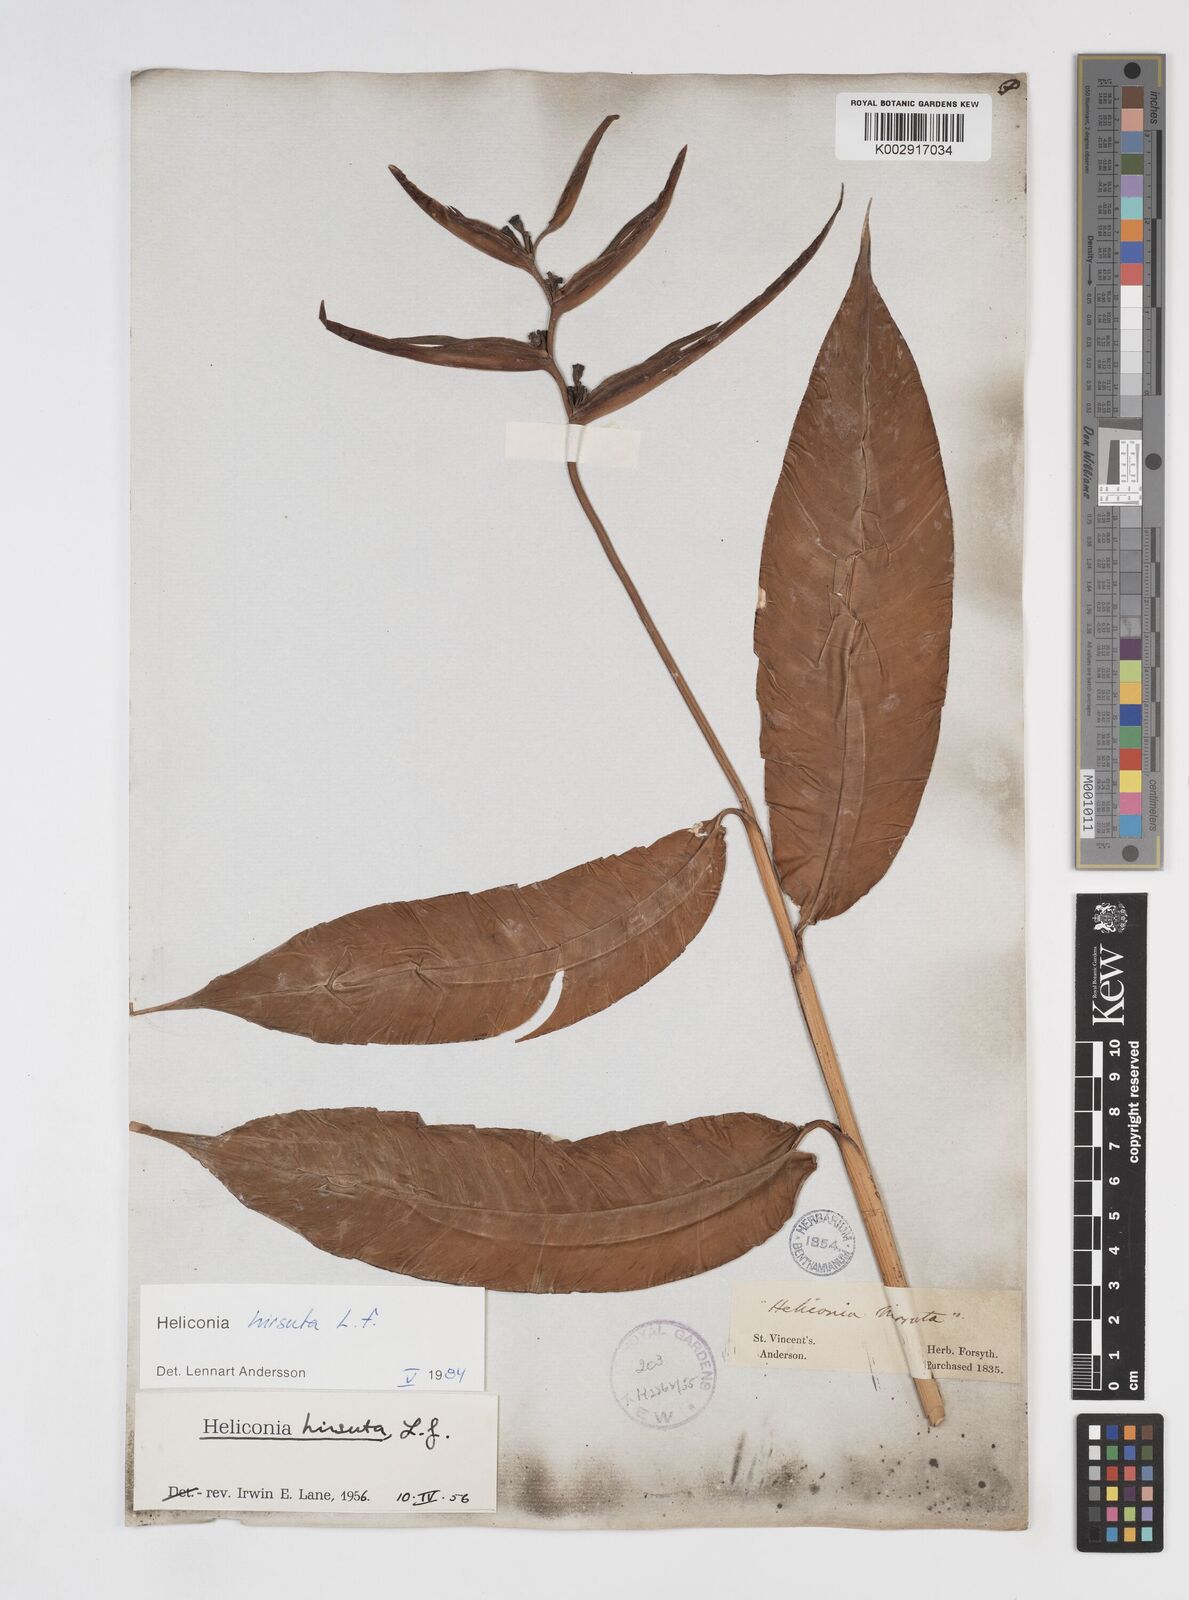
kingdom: Plantae
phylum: Tracheophyta
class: Liliopsida
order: Zingiberales
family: Heliconiaceae
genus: Heliconia
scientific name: Heliconia
